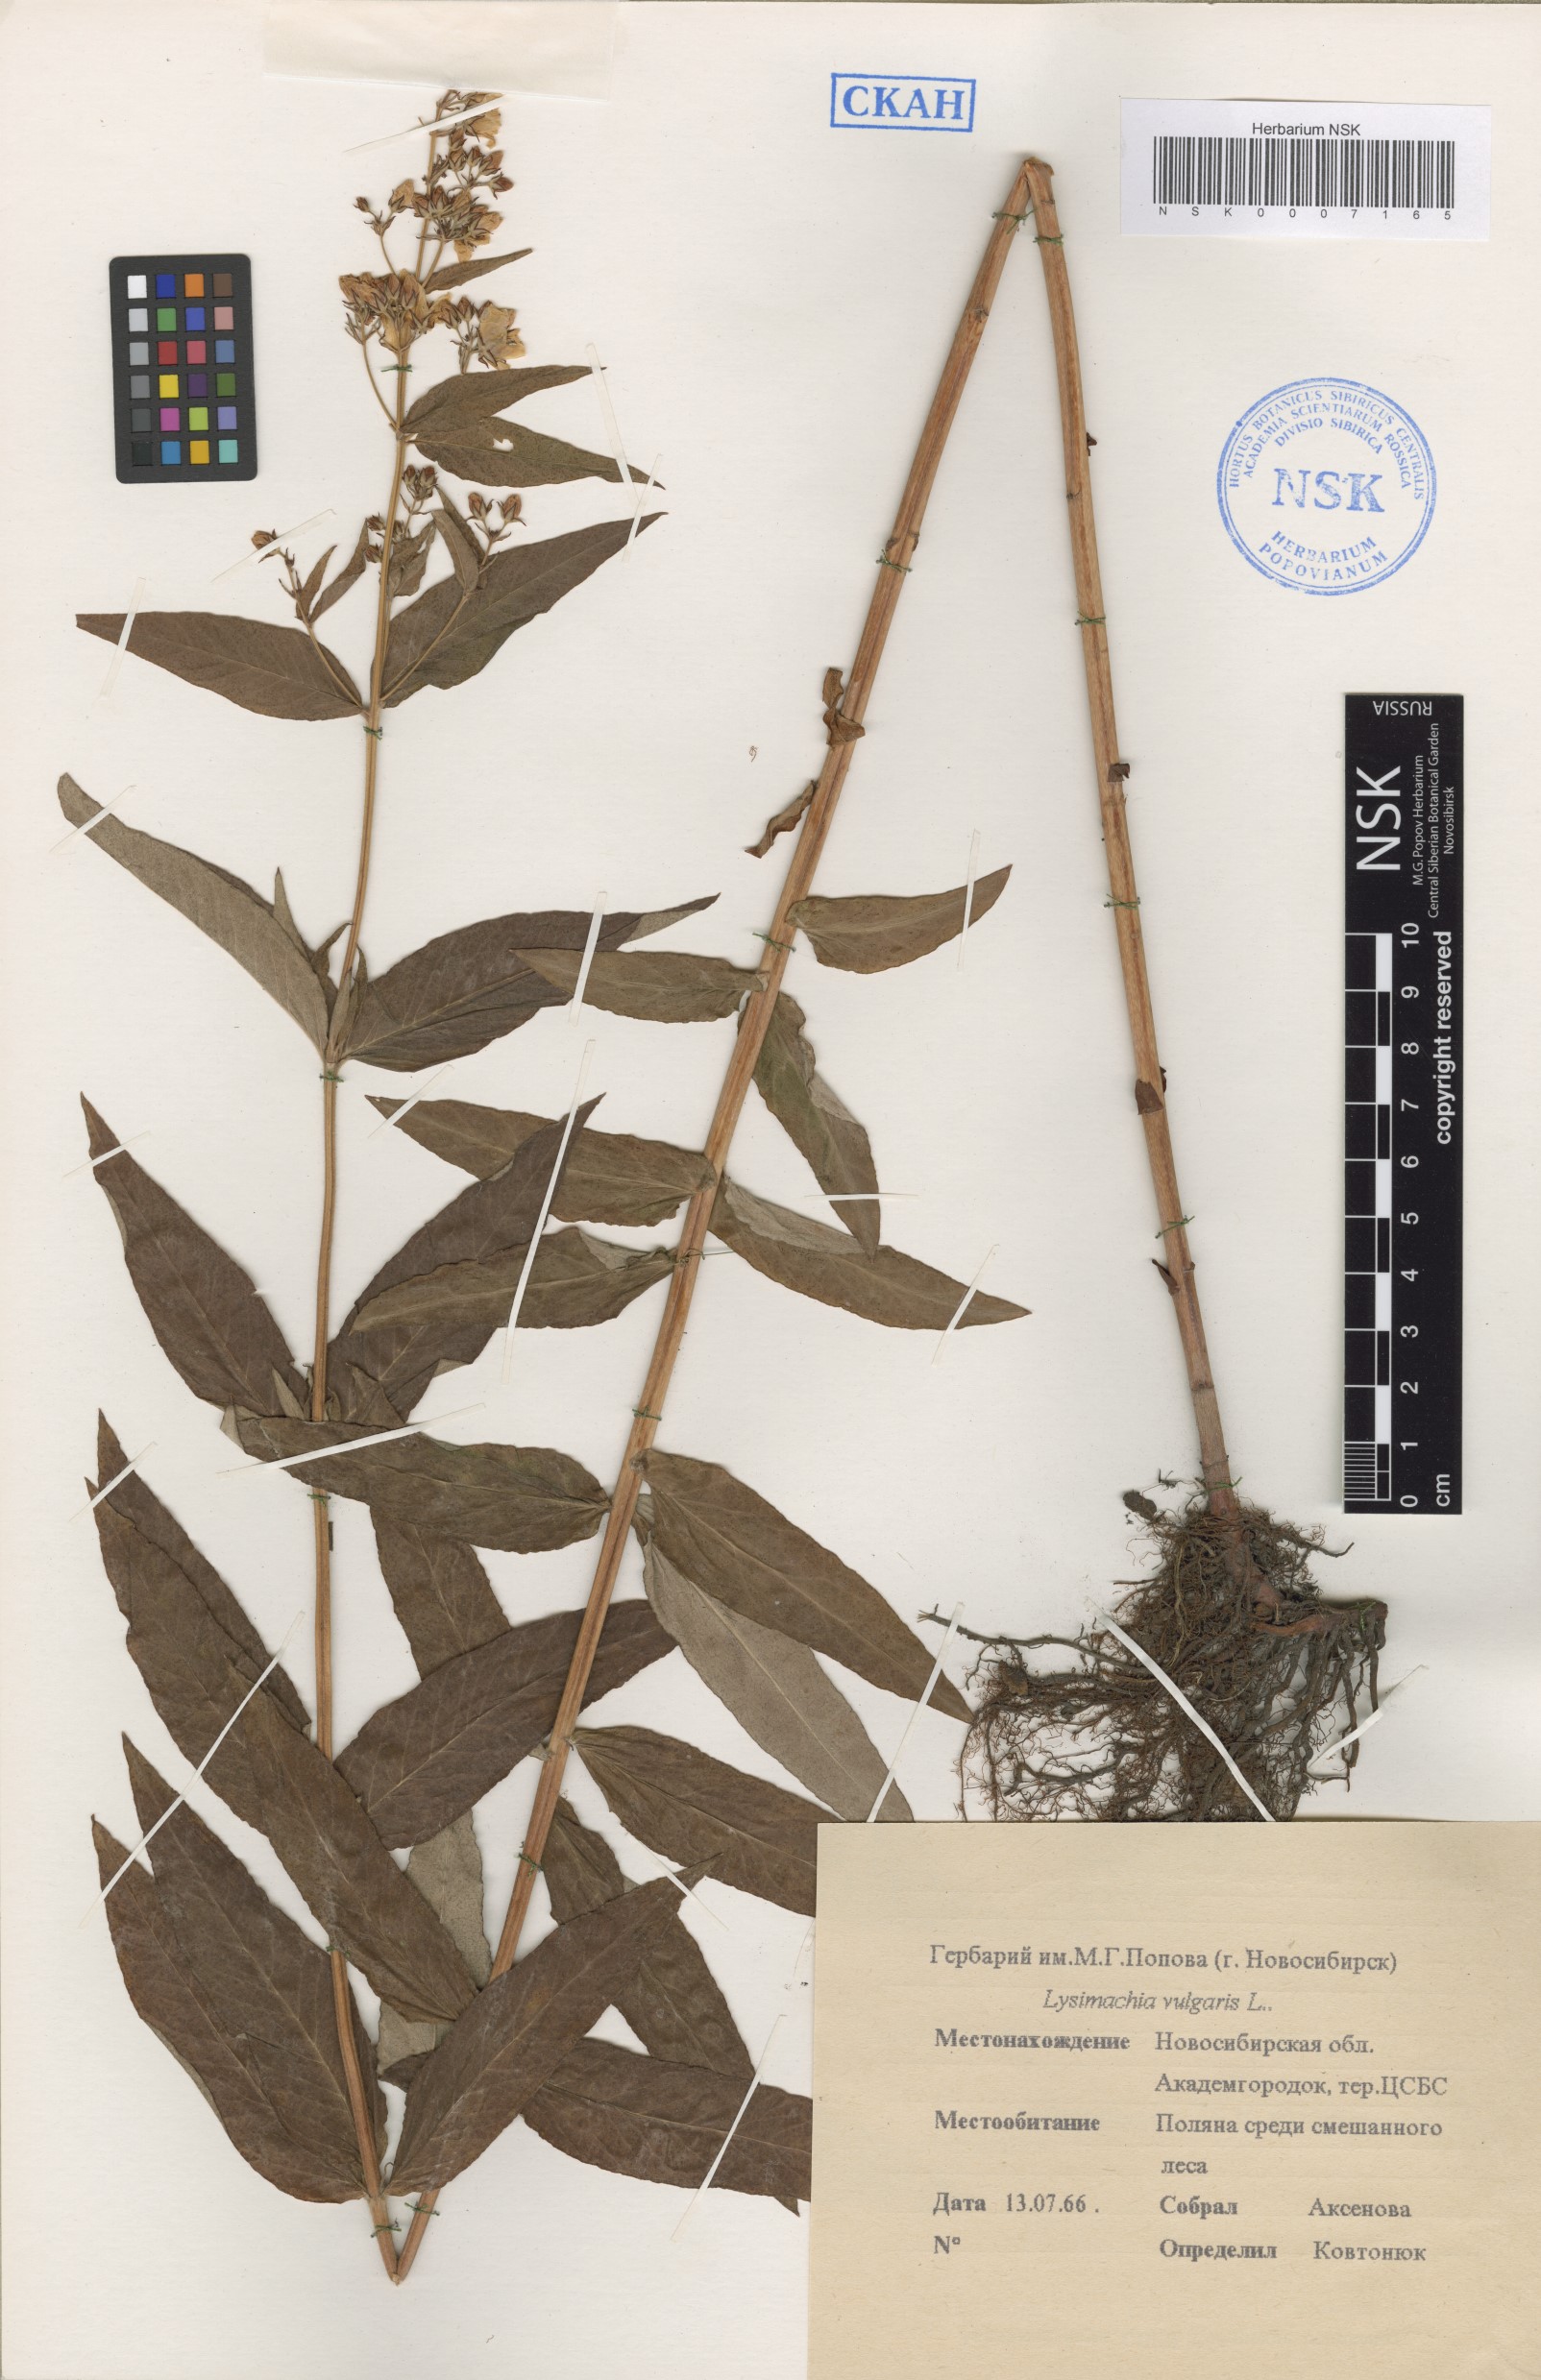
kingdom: Plantae
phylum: Tracheophyta
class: Magnoliopsida
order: Ericales
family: Primulaceae
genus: Lysimachia
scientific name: Lysimachia vulgaris
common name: Yellow loosestrife
